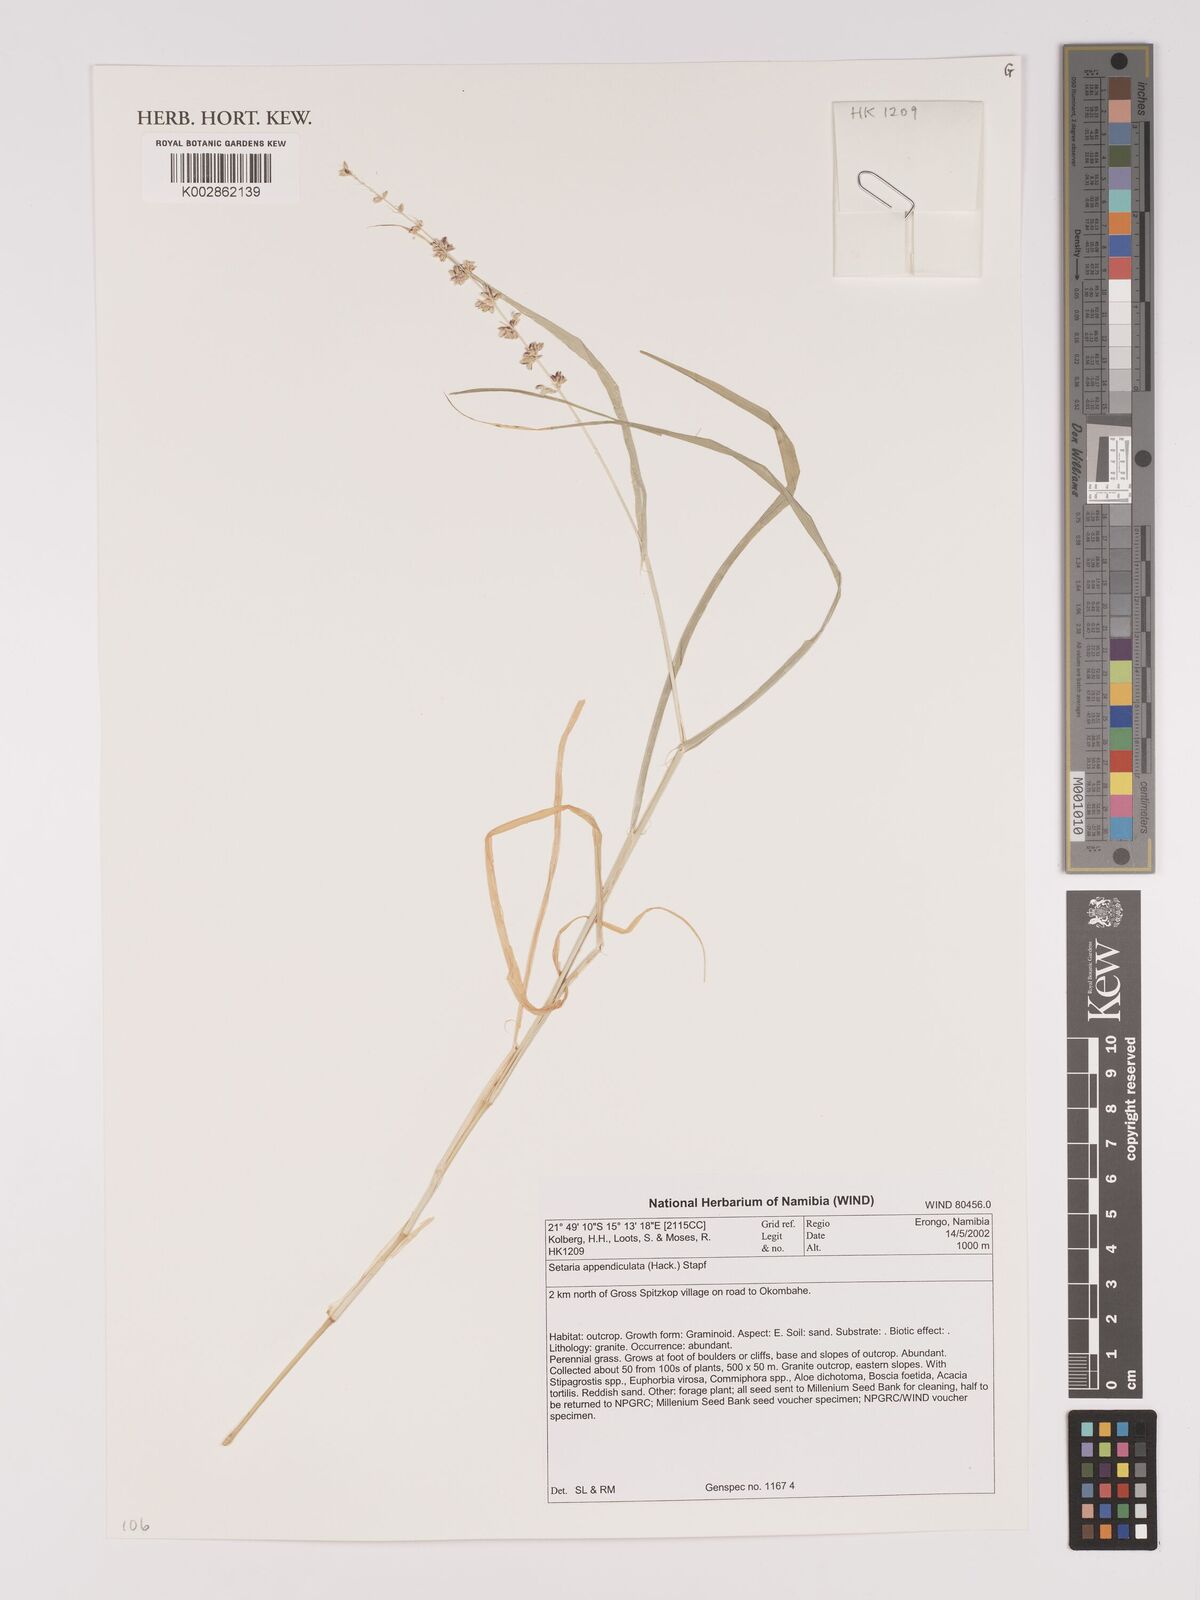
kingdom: Plantae
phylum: Tracheophyta
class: Liliopsida
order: Poales
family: Poaceae
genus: Setaria
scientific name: Setaria appendiculata
